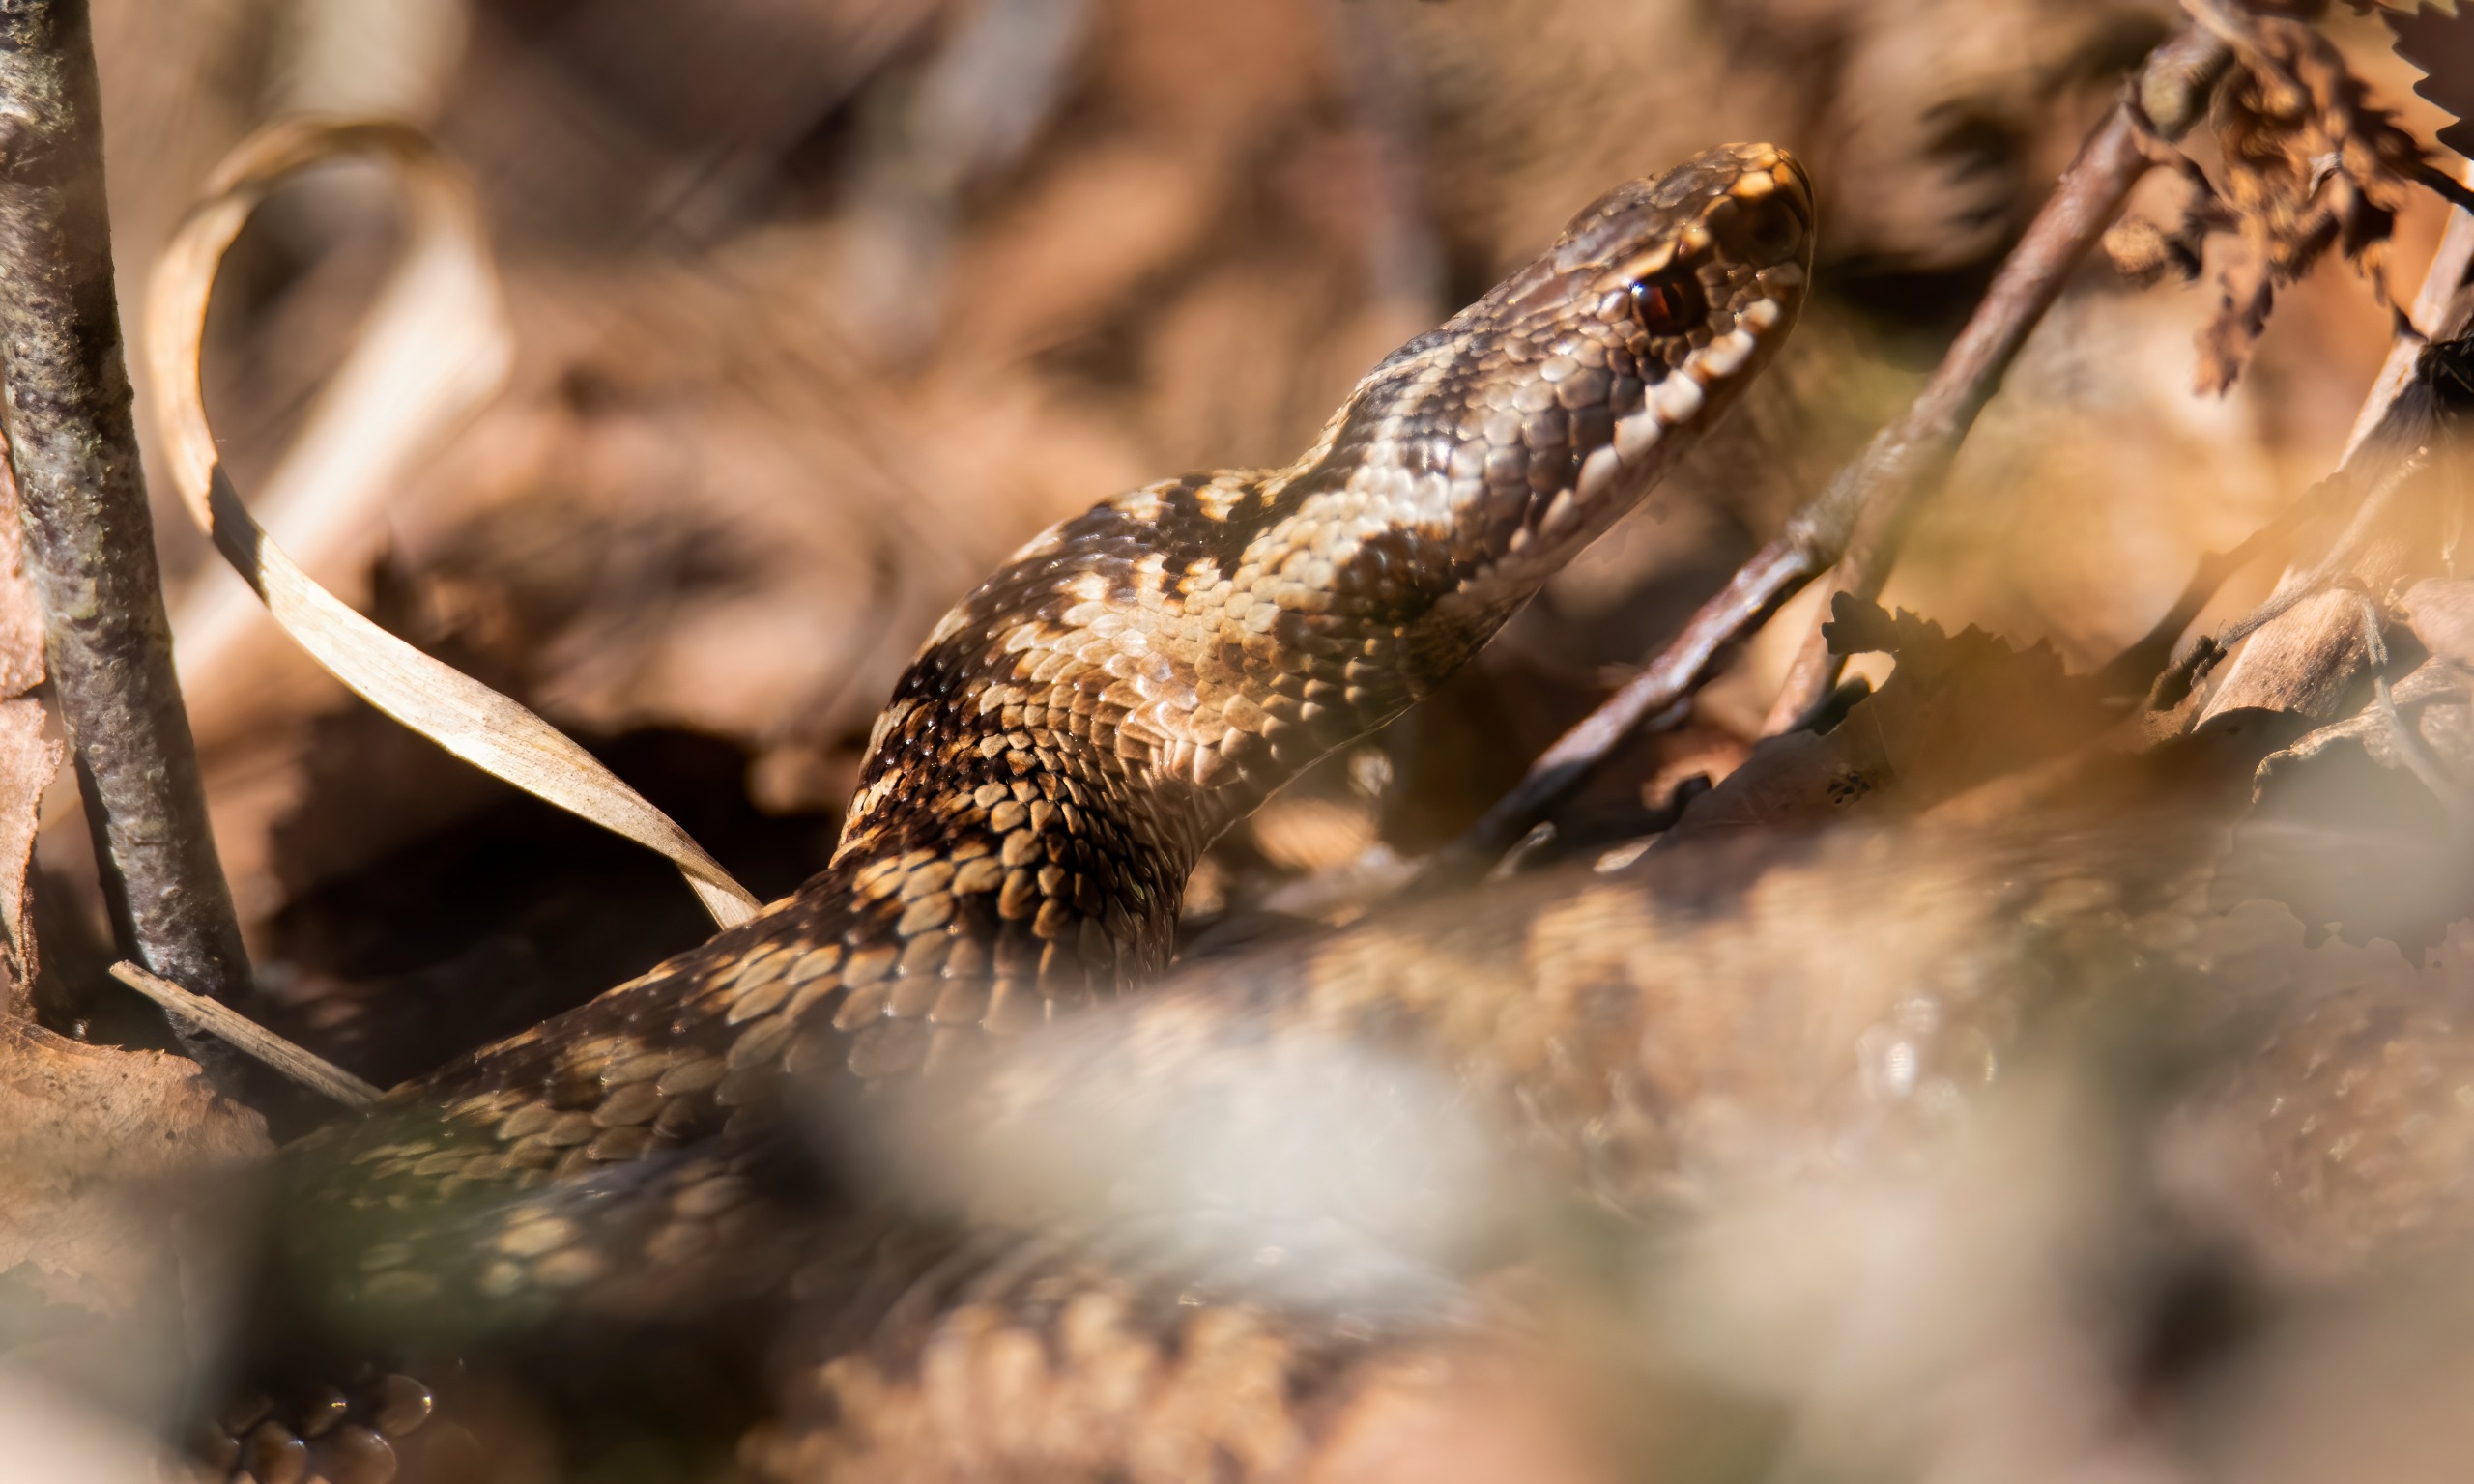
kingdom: Animalia
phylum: Chordata
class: Squamata
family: Viperidae
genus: Vipera
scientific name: Vipera berus
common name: Hugorm
